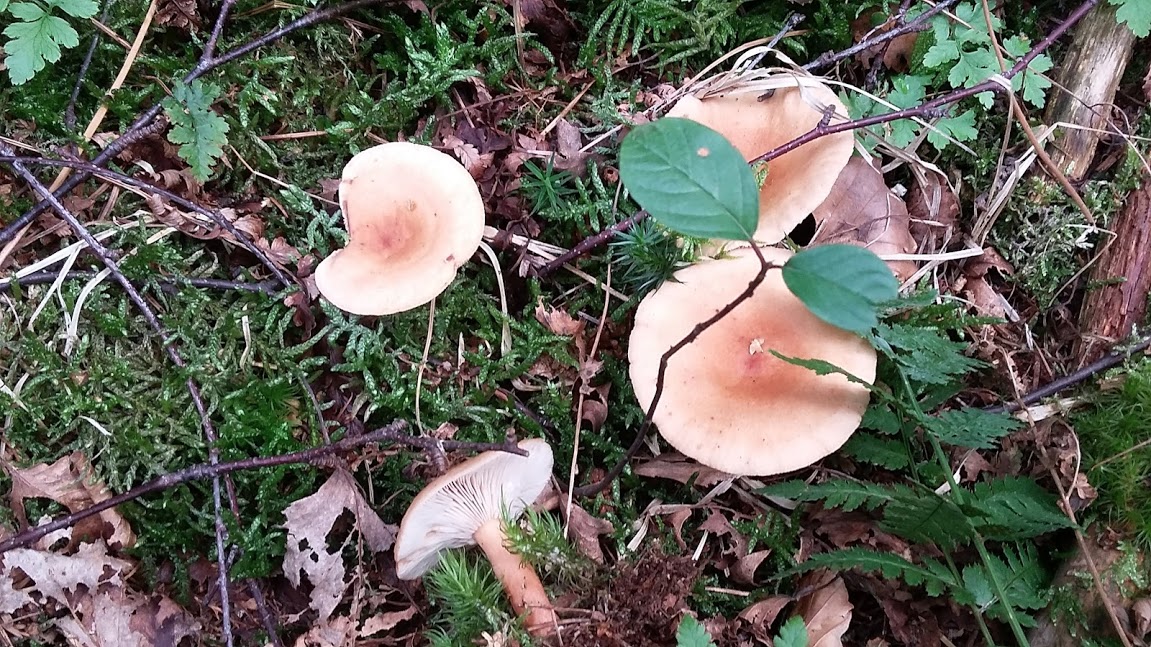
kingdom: Fungi
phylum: Basidiomycota
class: Agaricomycetes
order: Russulales
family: Russulaceae
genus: Lactarius
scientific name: Lactarius tabidus
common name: rynket mælkehat
